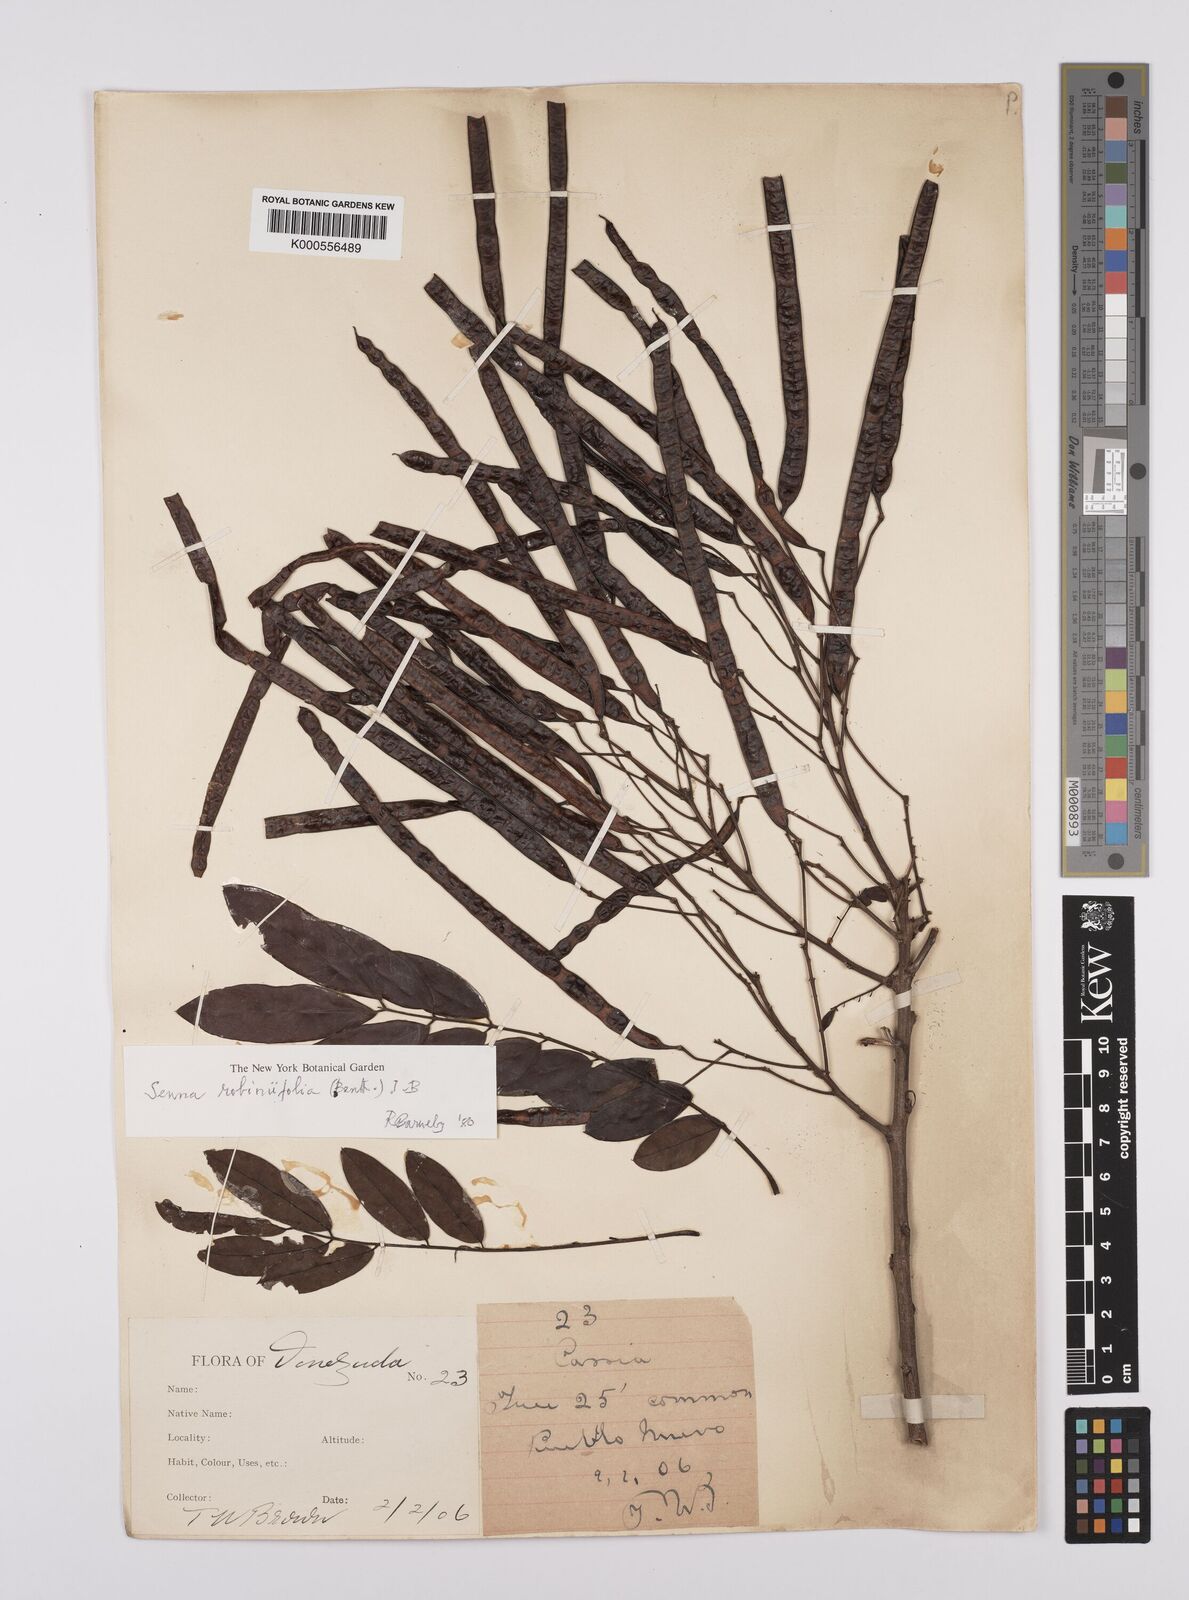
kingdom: Plantae
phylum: Tracheophyta
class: Magnoliopsida
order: Fabales
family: Fabaceae
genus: Senna
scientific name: Senna robiniifolia
